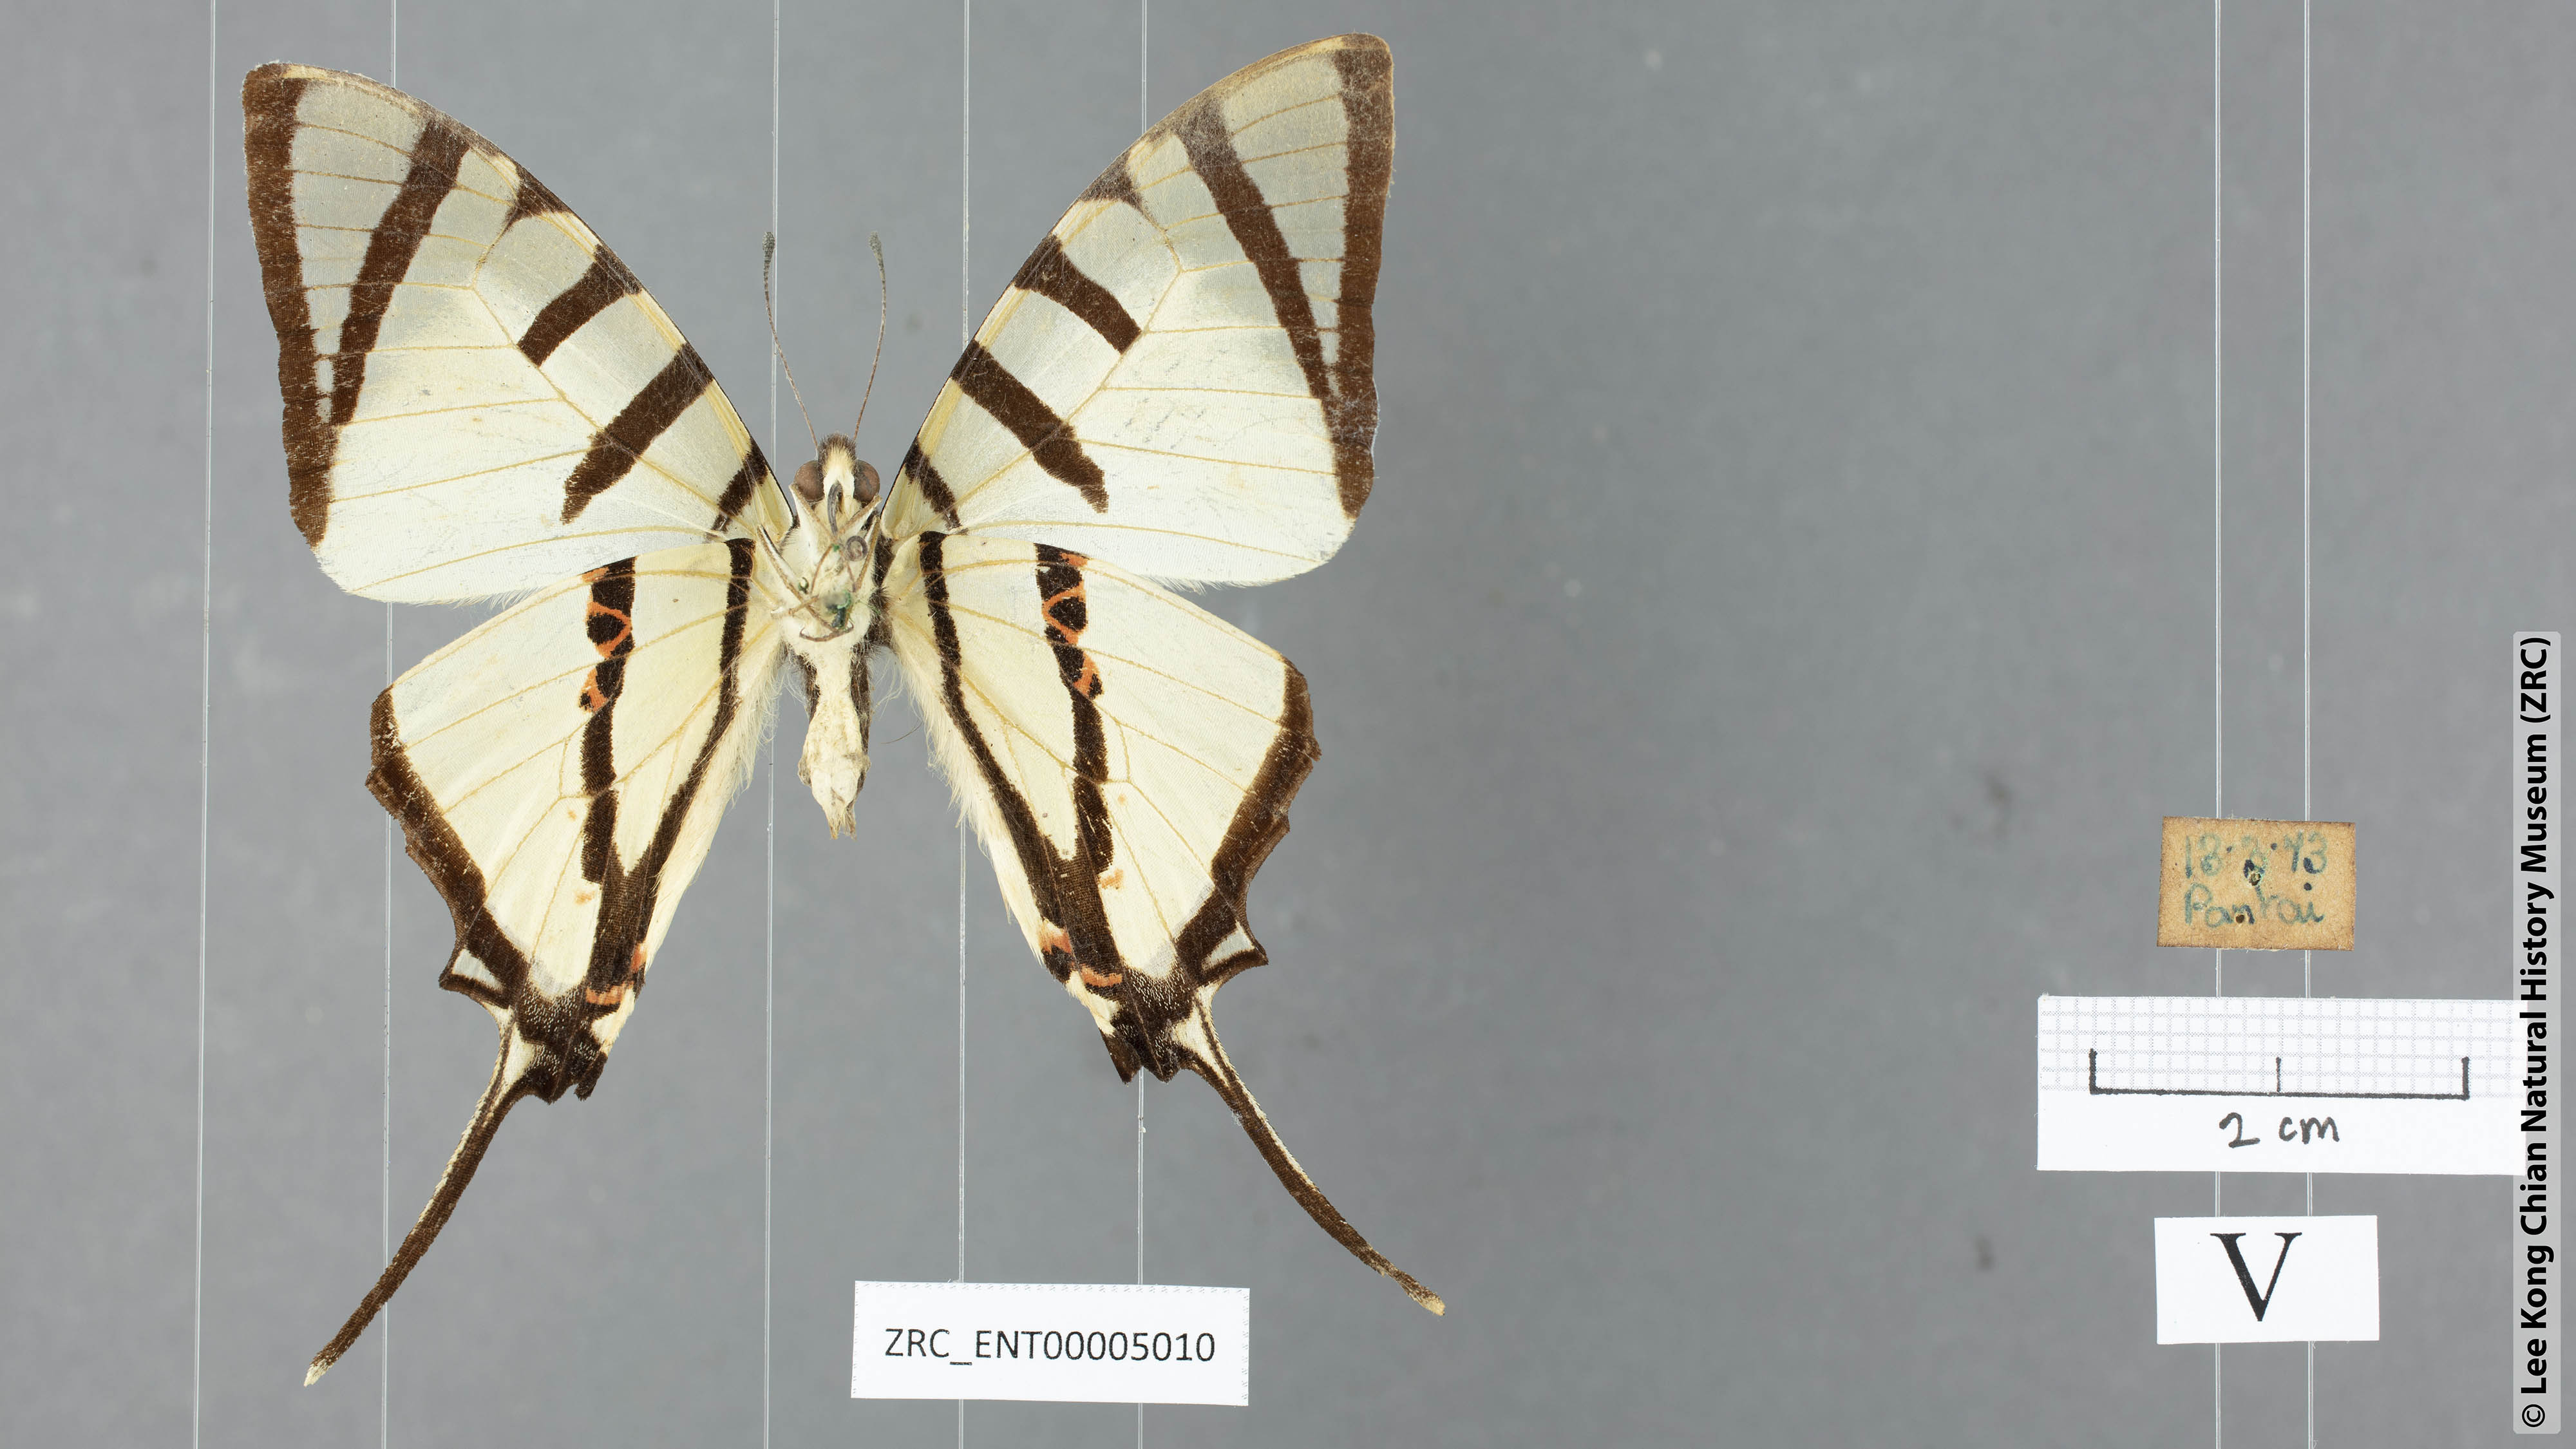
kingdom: Animalia
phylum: Arthropoda
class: Insecta
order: Lepidoptera
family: Papilionidae
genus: Graphium
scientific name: Graphium agetes
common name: Fourbar swordtail
